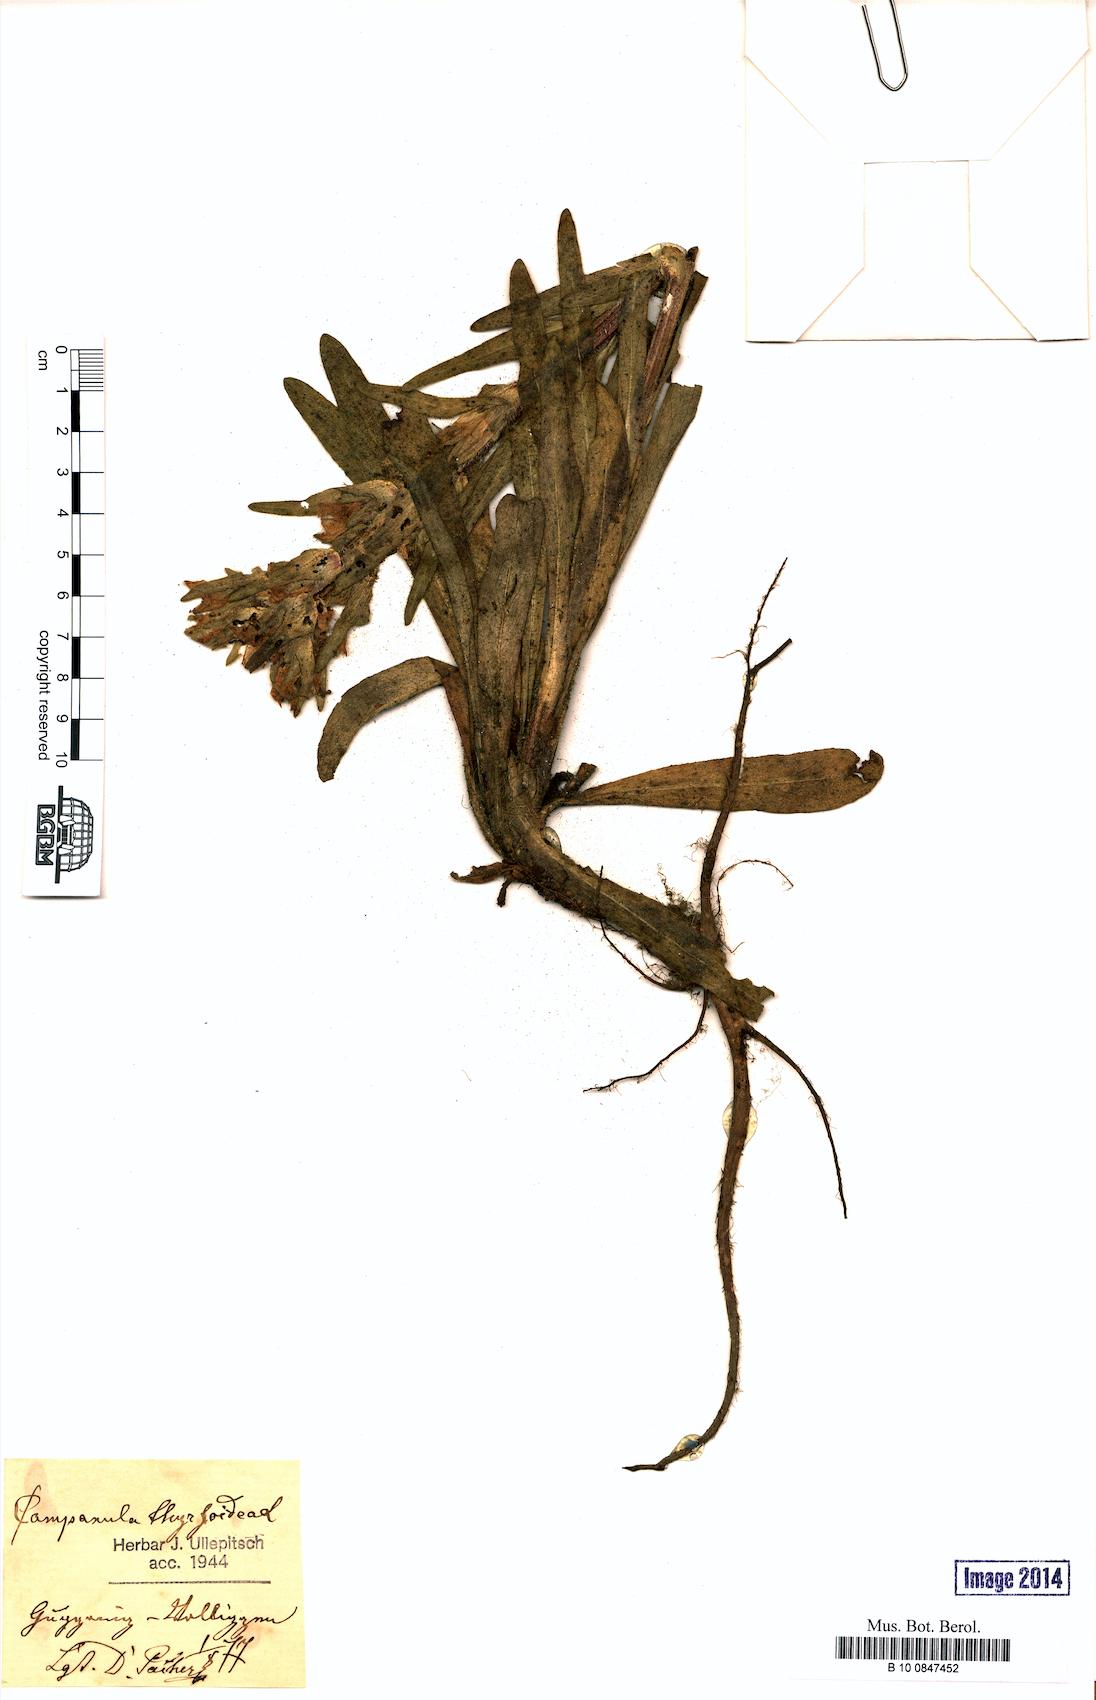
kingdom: Plantae
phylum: Tracheophyta
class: Magnoliopsida
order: Asterales
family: Campanulaceae
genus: Campanula
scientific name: Campanula thyrsoides
